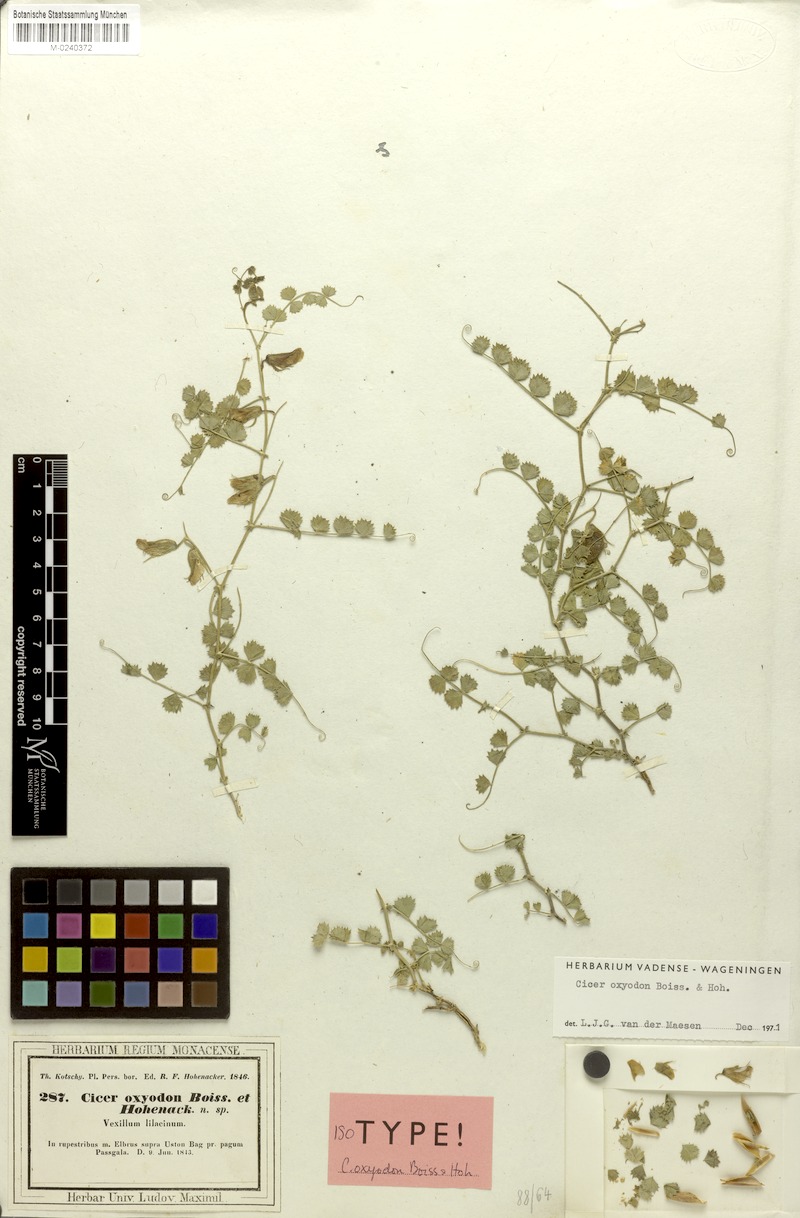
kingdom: Plantae
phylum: Tracheophyta
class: Magnoliopsida
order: Fabales
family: Fabaceae
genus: Cicer
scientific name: Cicer oxyodon
